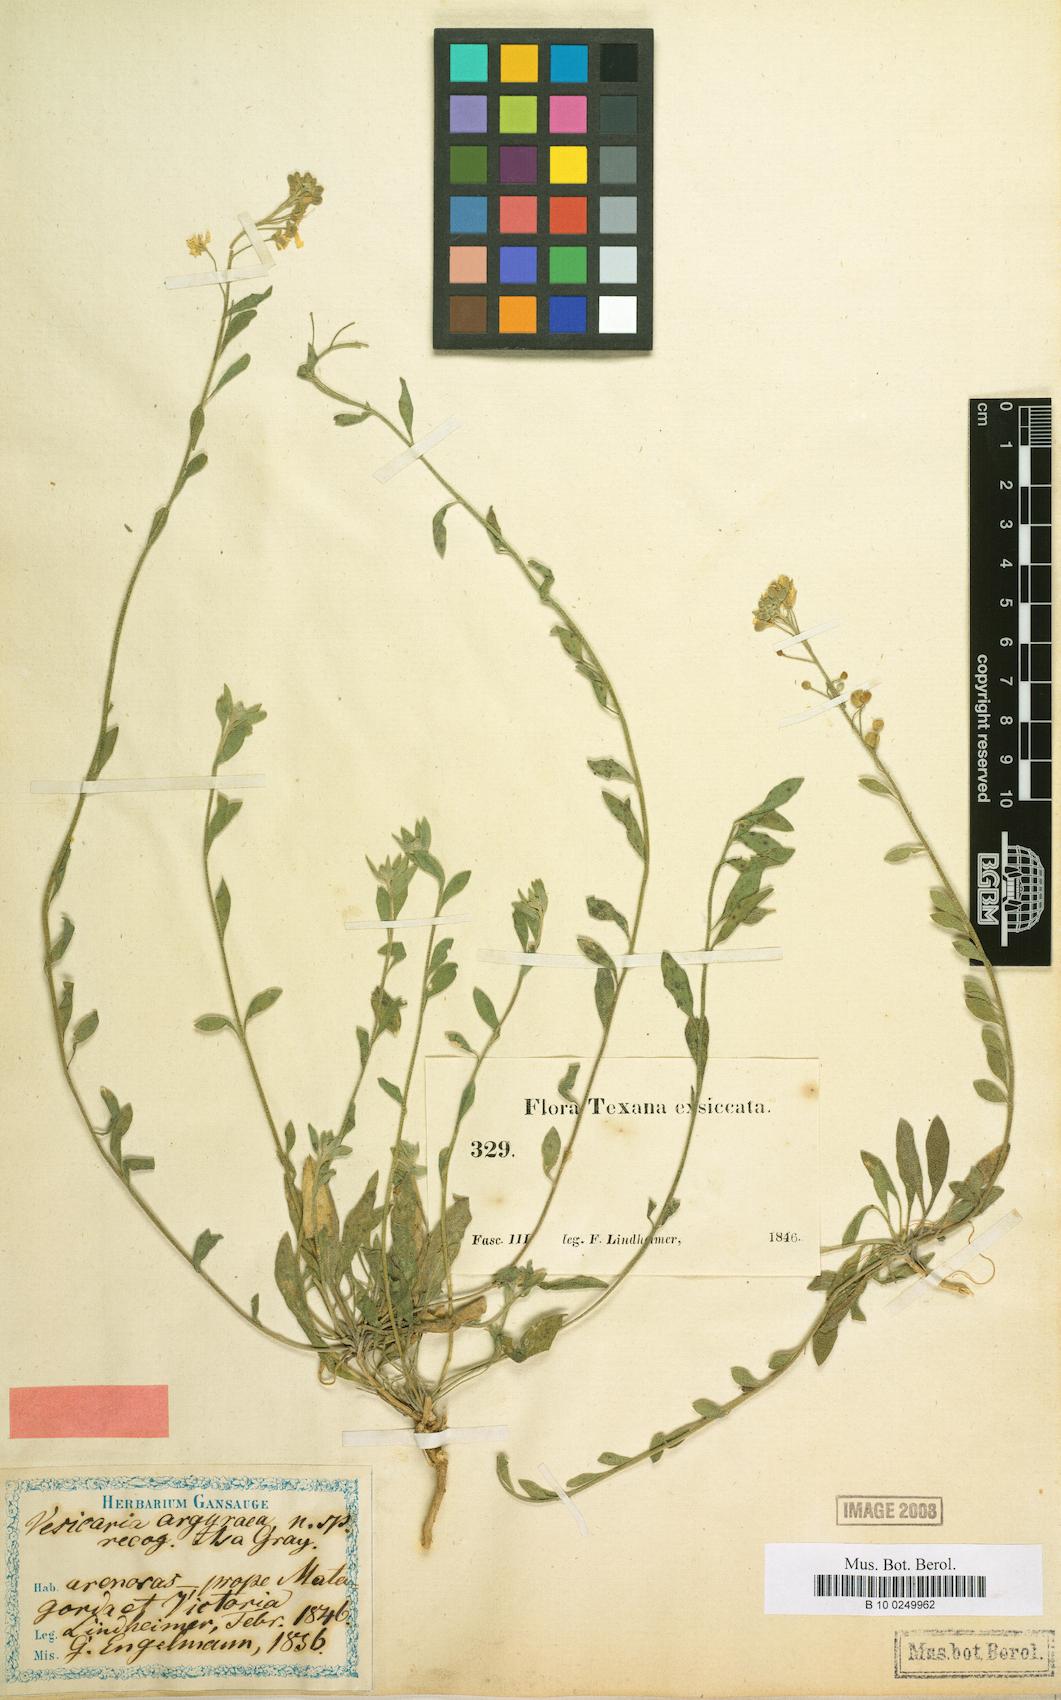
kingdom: Plantae
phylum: Tracheophyta
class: Magnoliopsida
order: Brassicales
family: Brassicaceae
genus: Physaria
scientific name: Physaria argyraea
